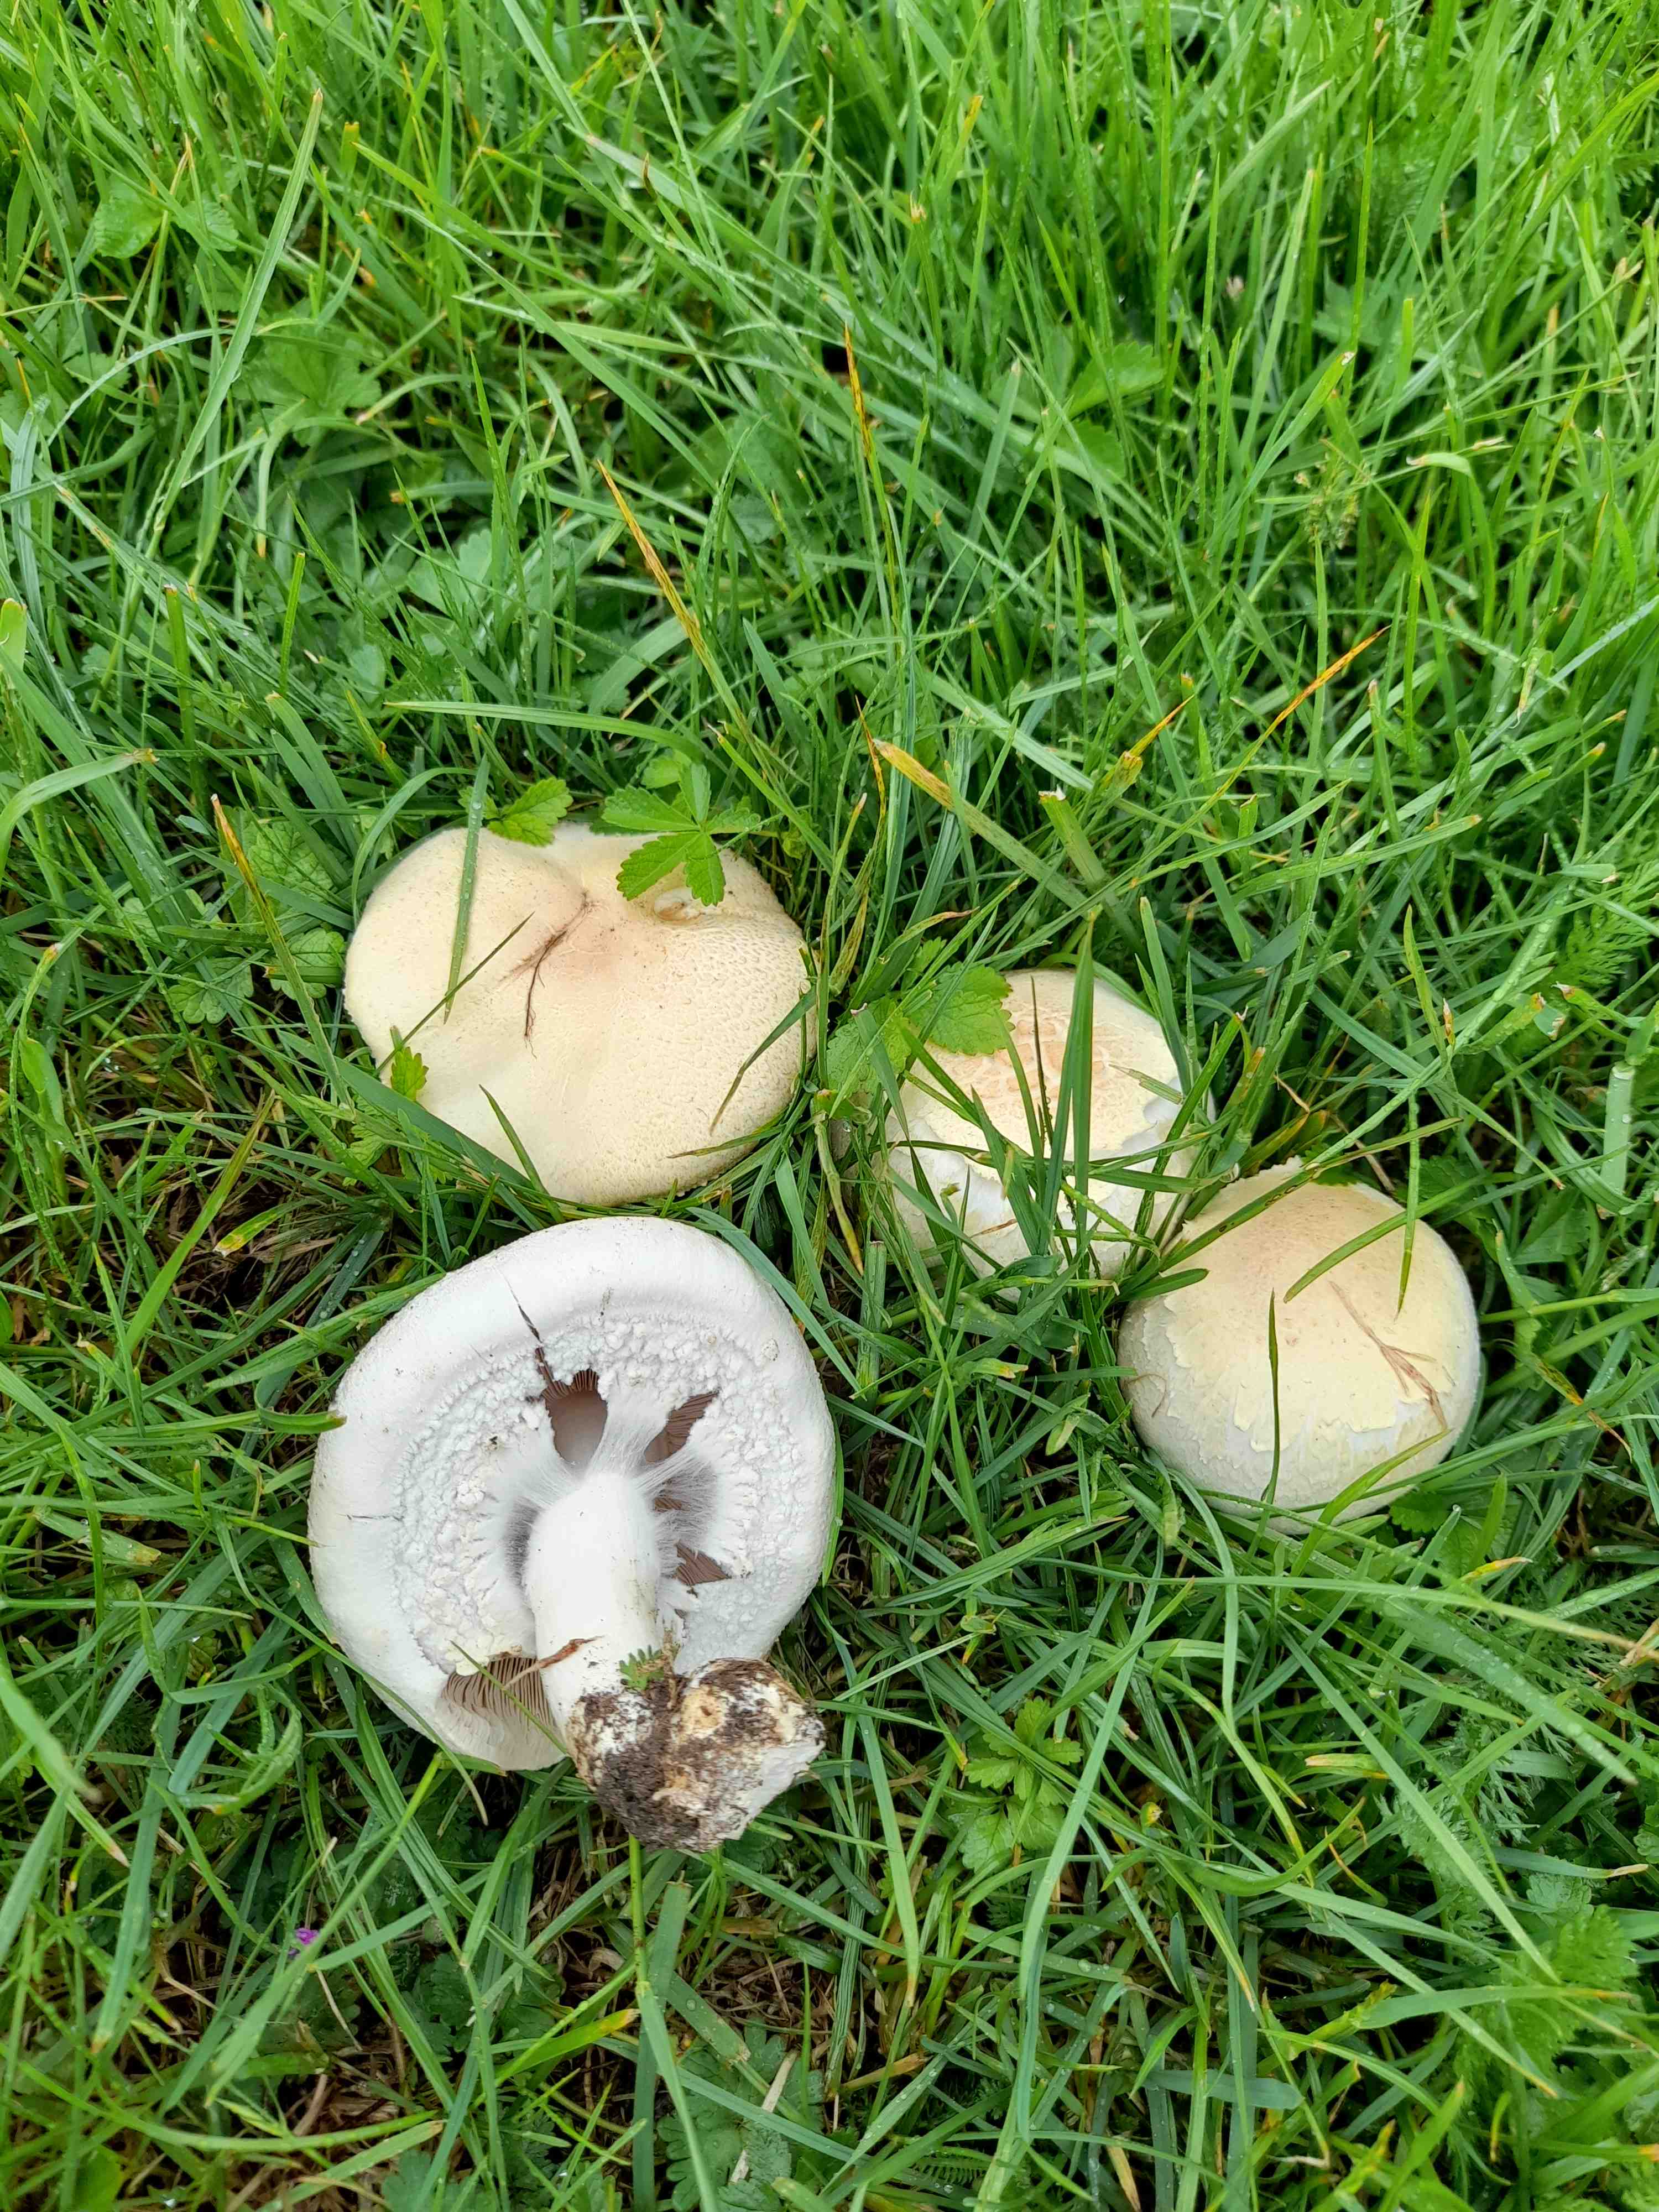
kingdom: Fungi
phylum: Basidiomycota
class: Agaricomycetes
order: Agaricales
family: Agaricaceae
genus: Agaricus
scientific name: Agaricus arvensis
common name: ager-champignon
